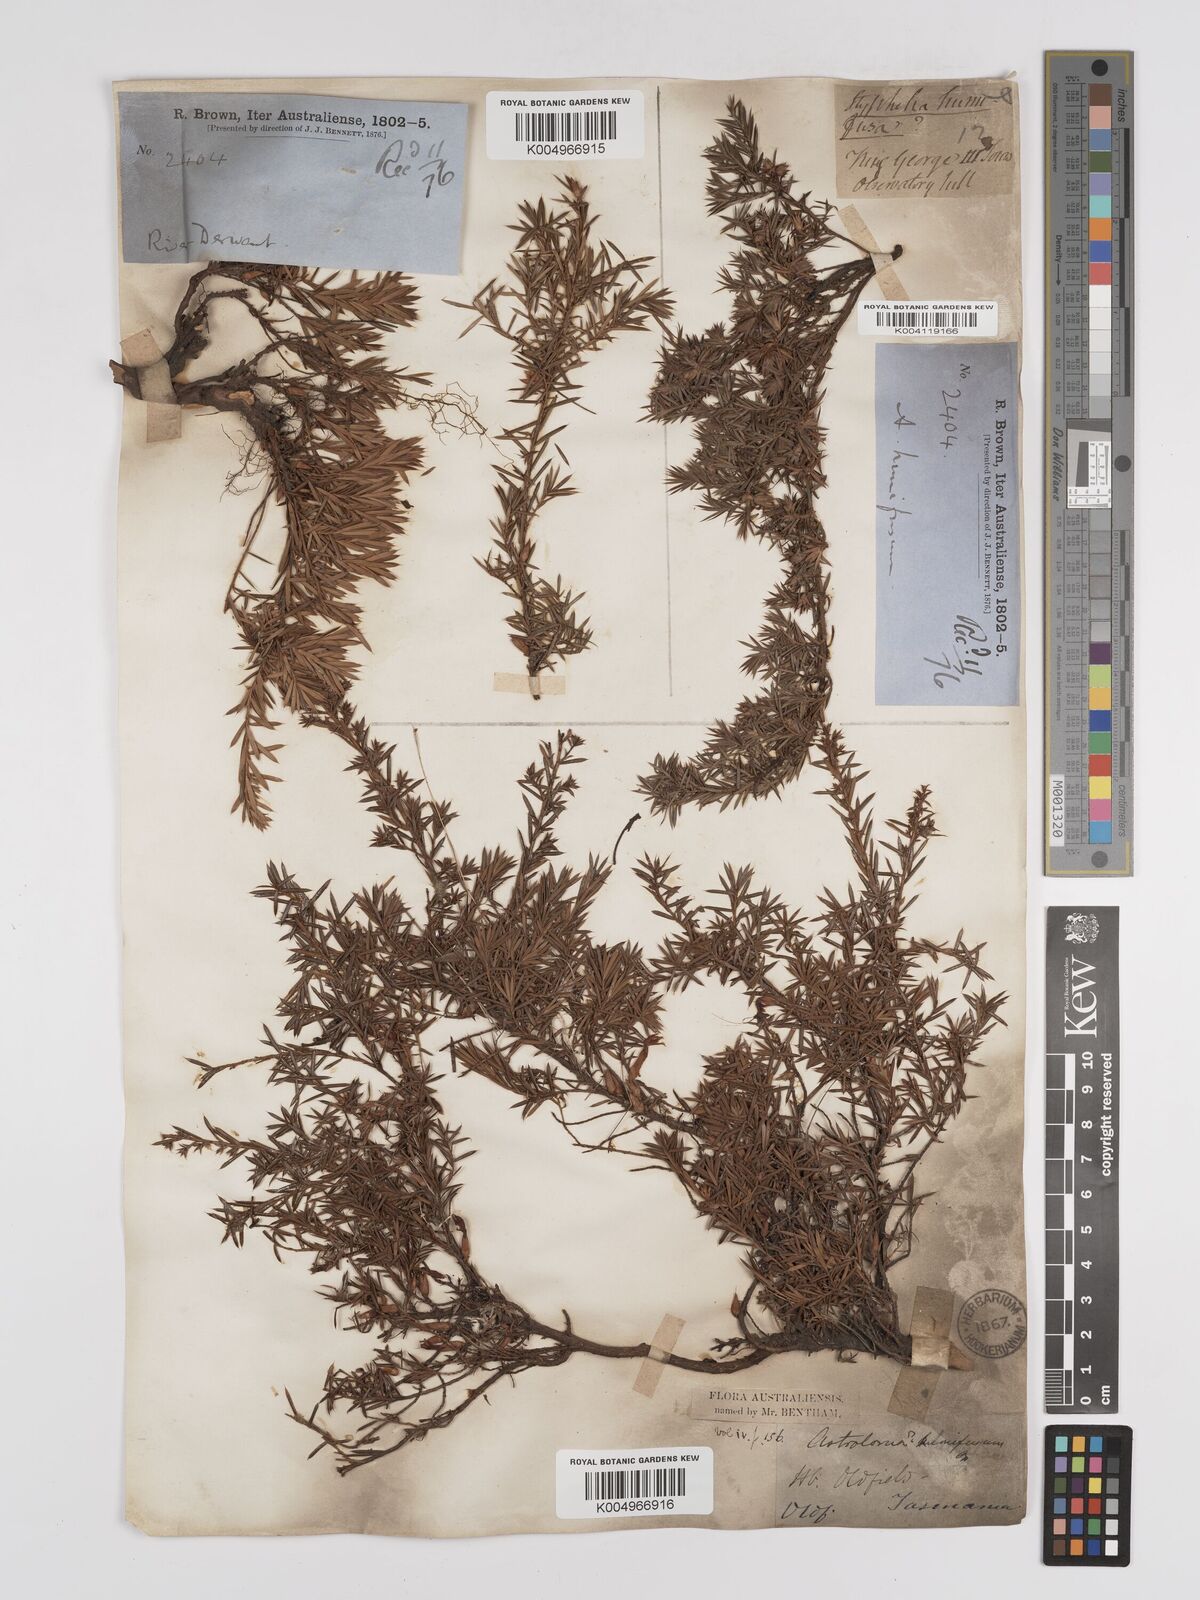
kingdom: Plantae
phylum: Tracheophyta
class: Magnoliopsida
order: Ericales
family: Ericaceae
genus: Styphelia
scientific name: Styphelia humifusa
